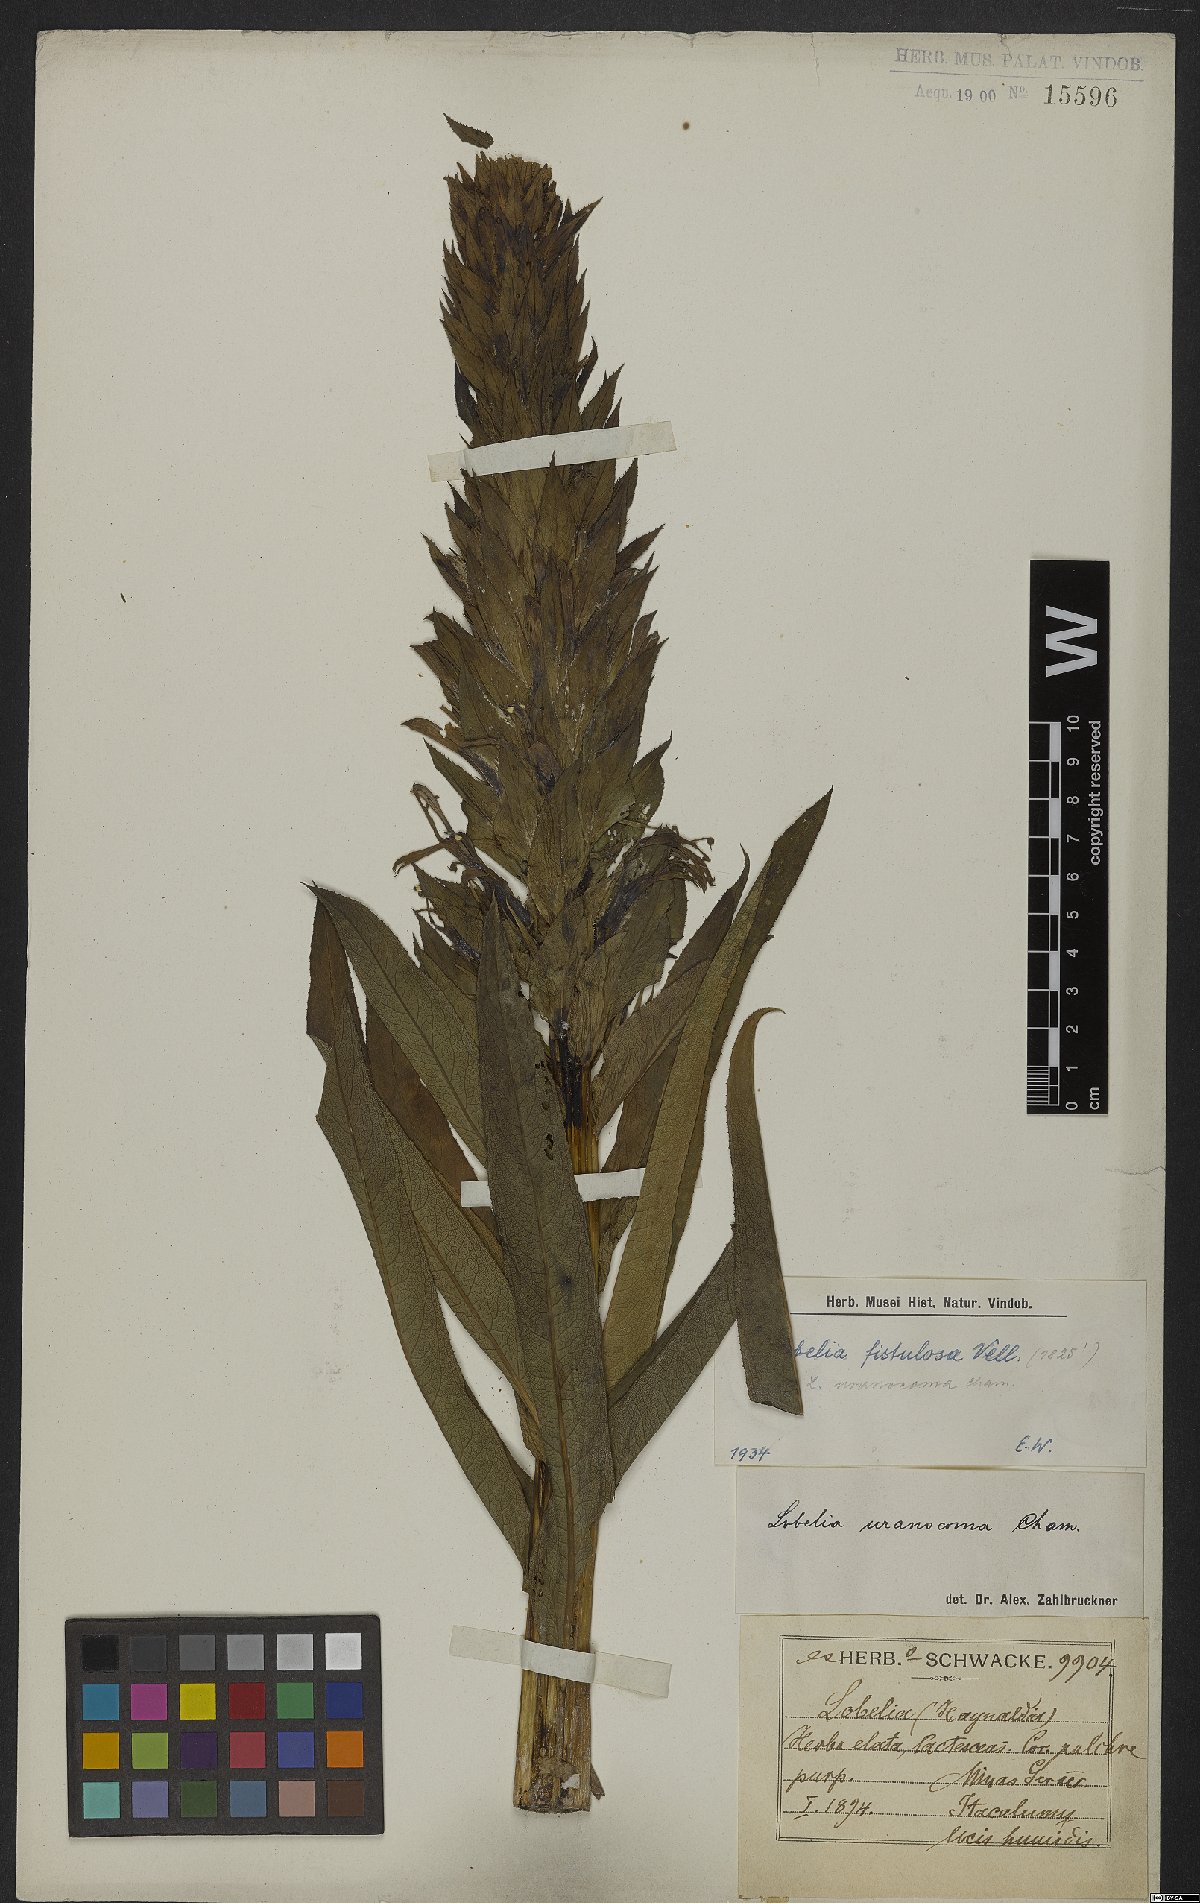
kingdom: Plantae
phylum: Tracheophyta
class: Magnoliopsida
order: Asterales
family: Campanulaceae
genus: Lobelia
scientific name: Lobelia fistulosa
